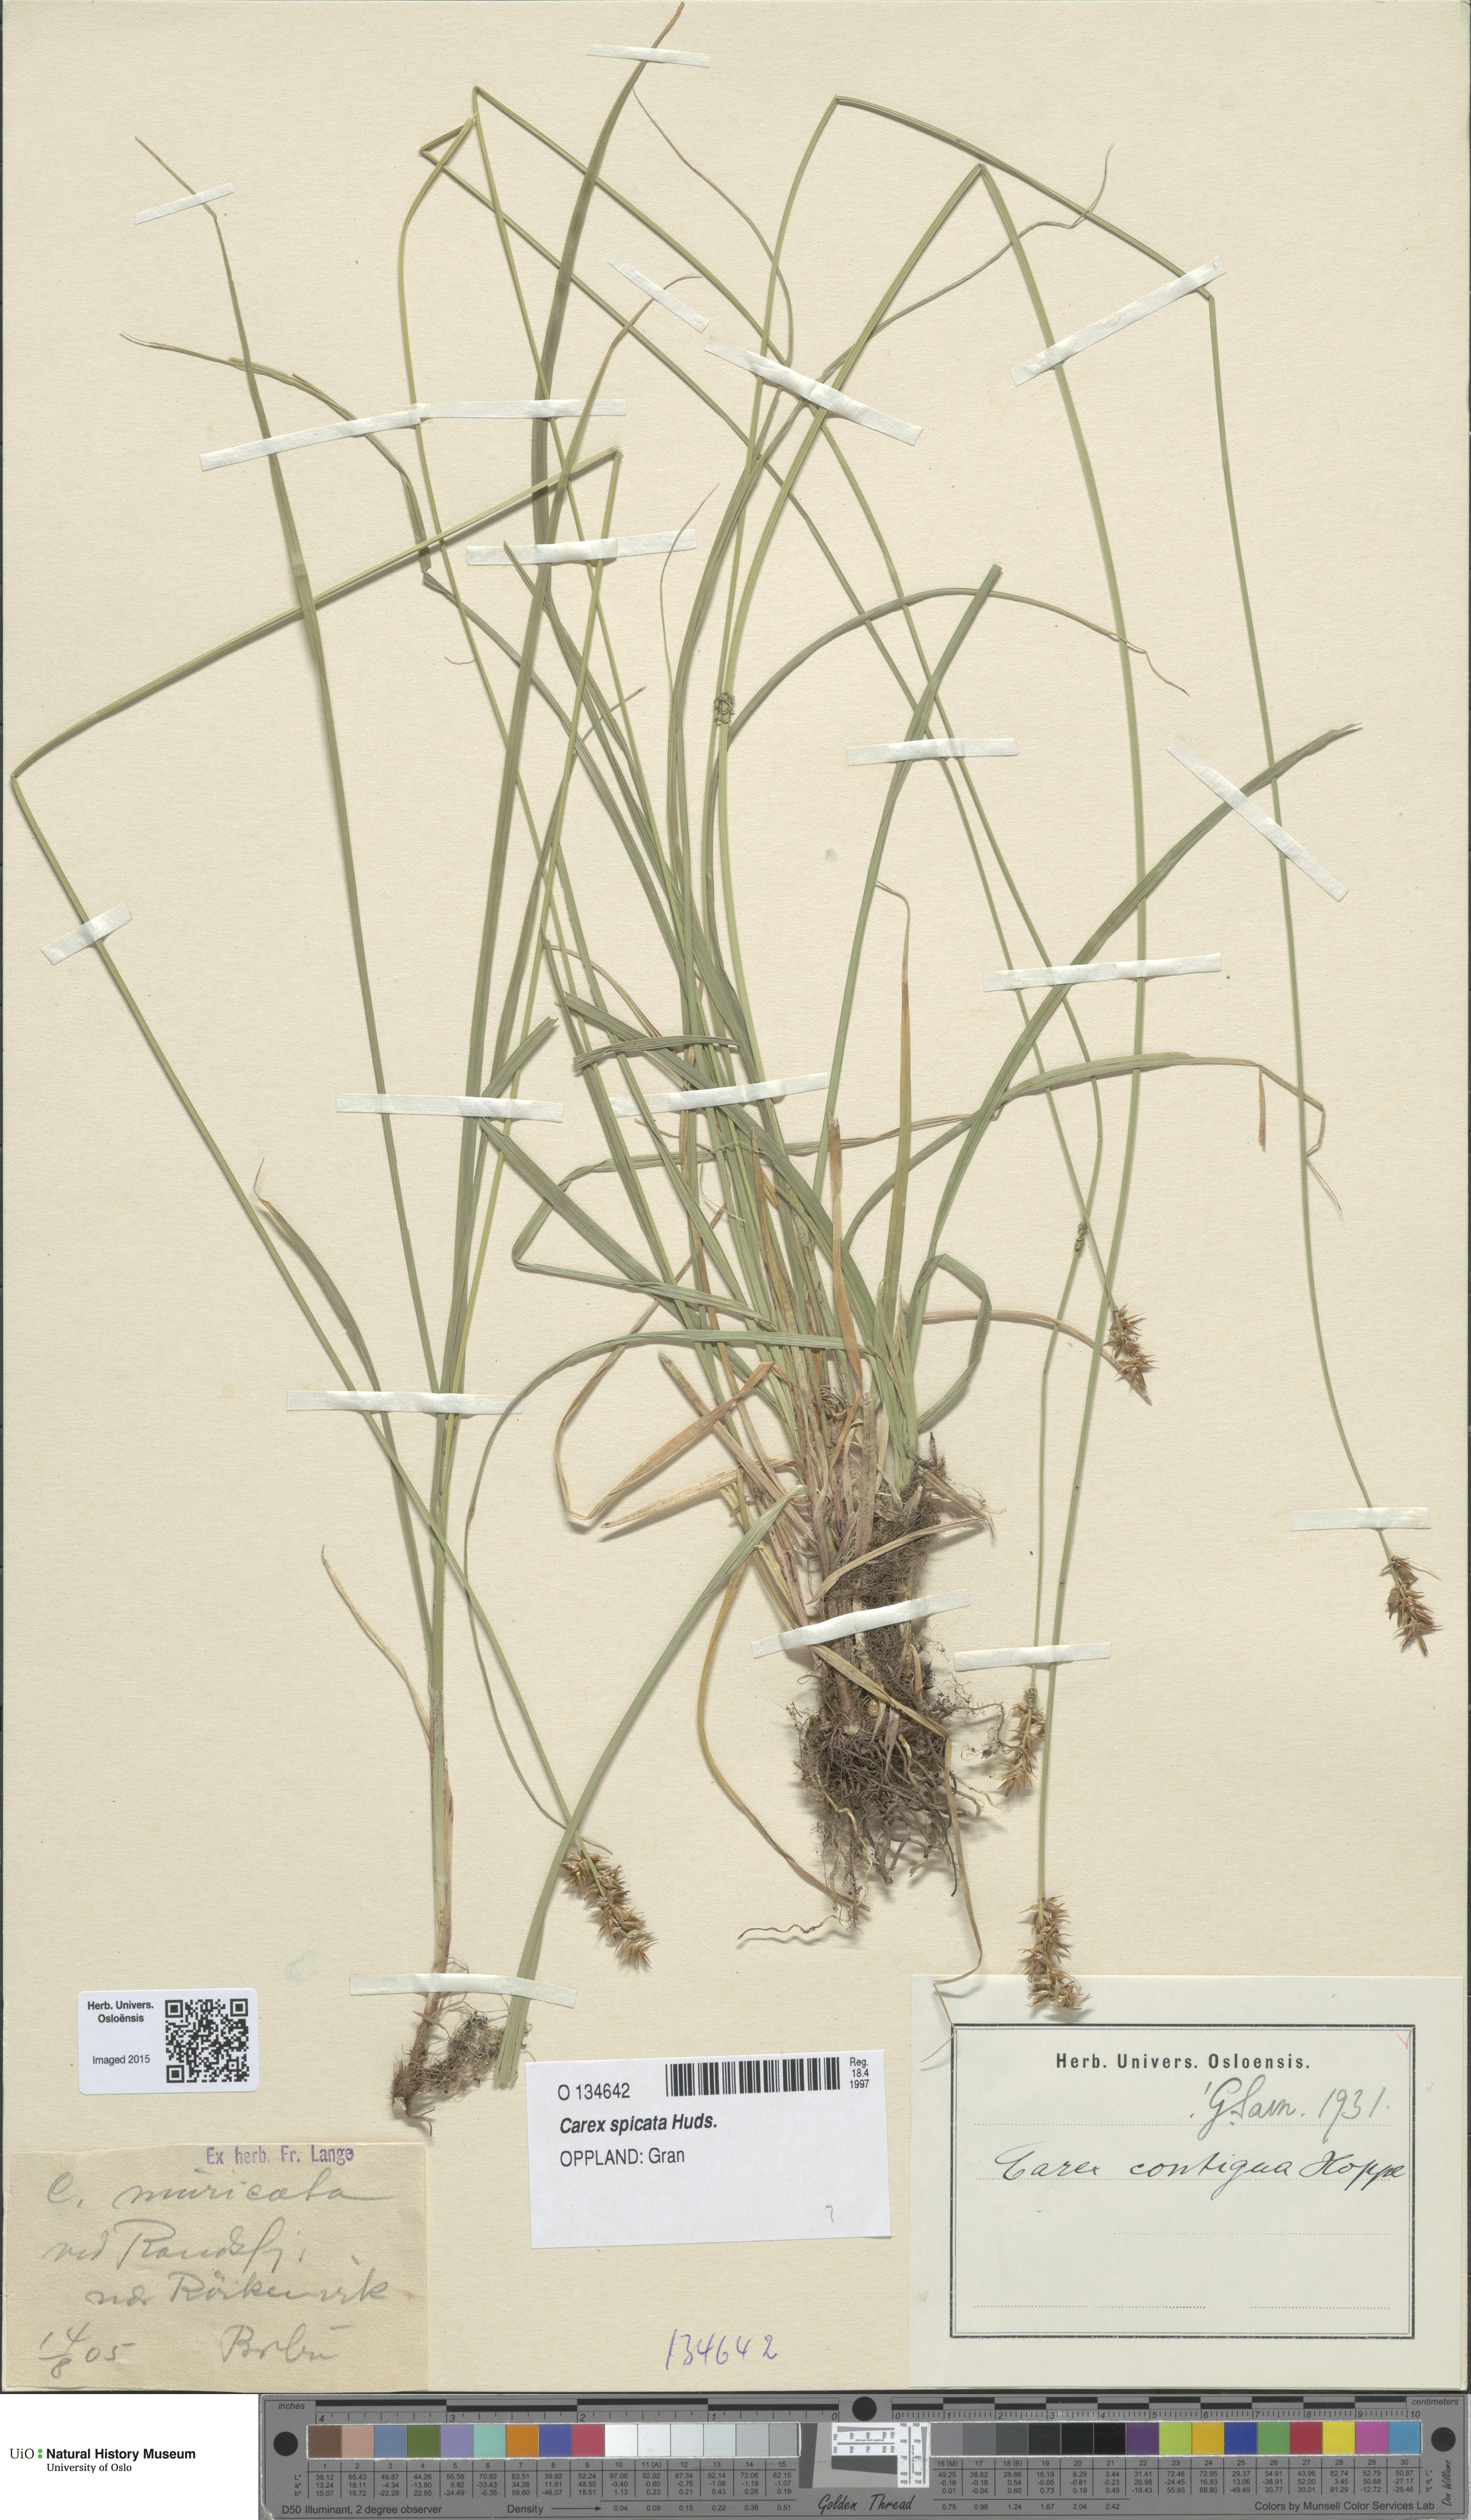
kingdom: Plantae
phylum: Tracheophyta
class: Liliopsida
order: Poales
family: Cyperaceae
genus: Carex
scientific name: Carex spicata
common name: Spiked sedge
